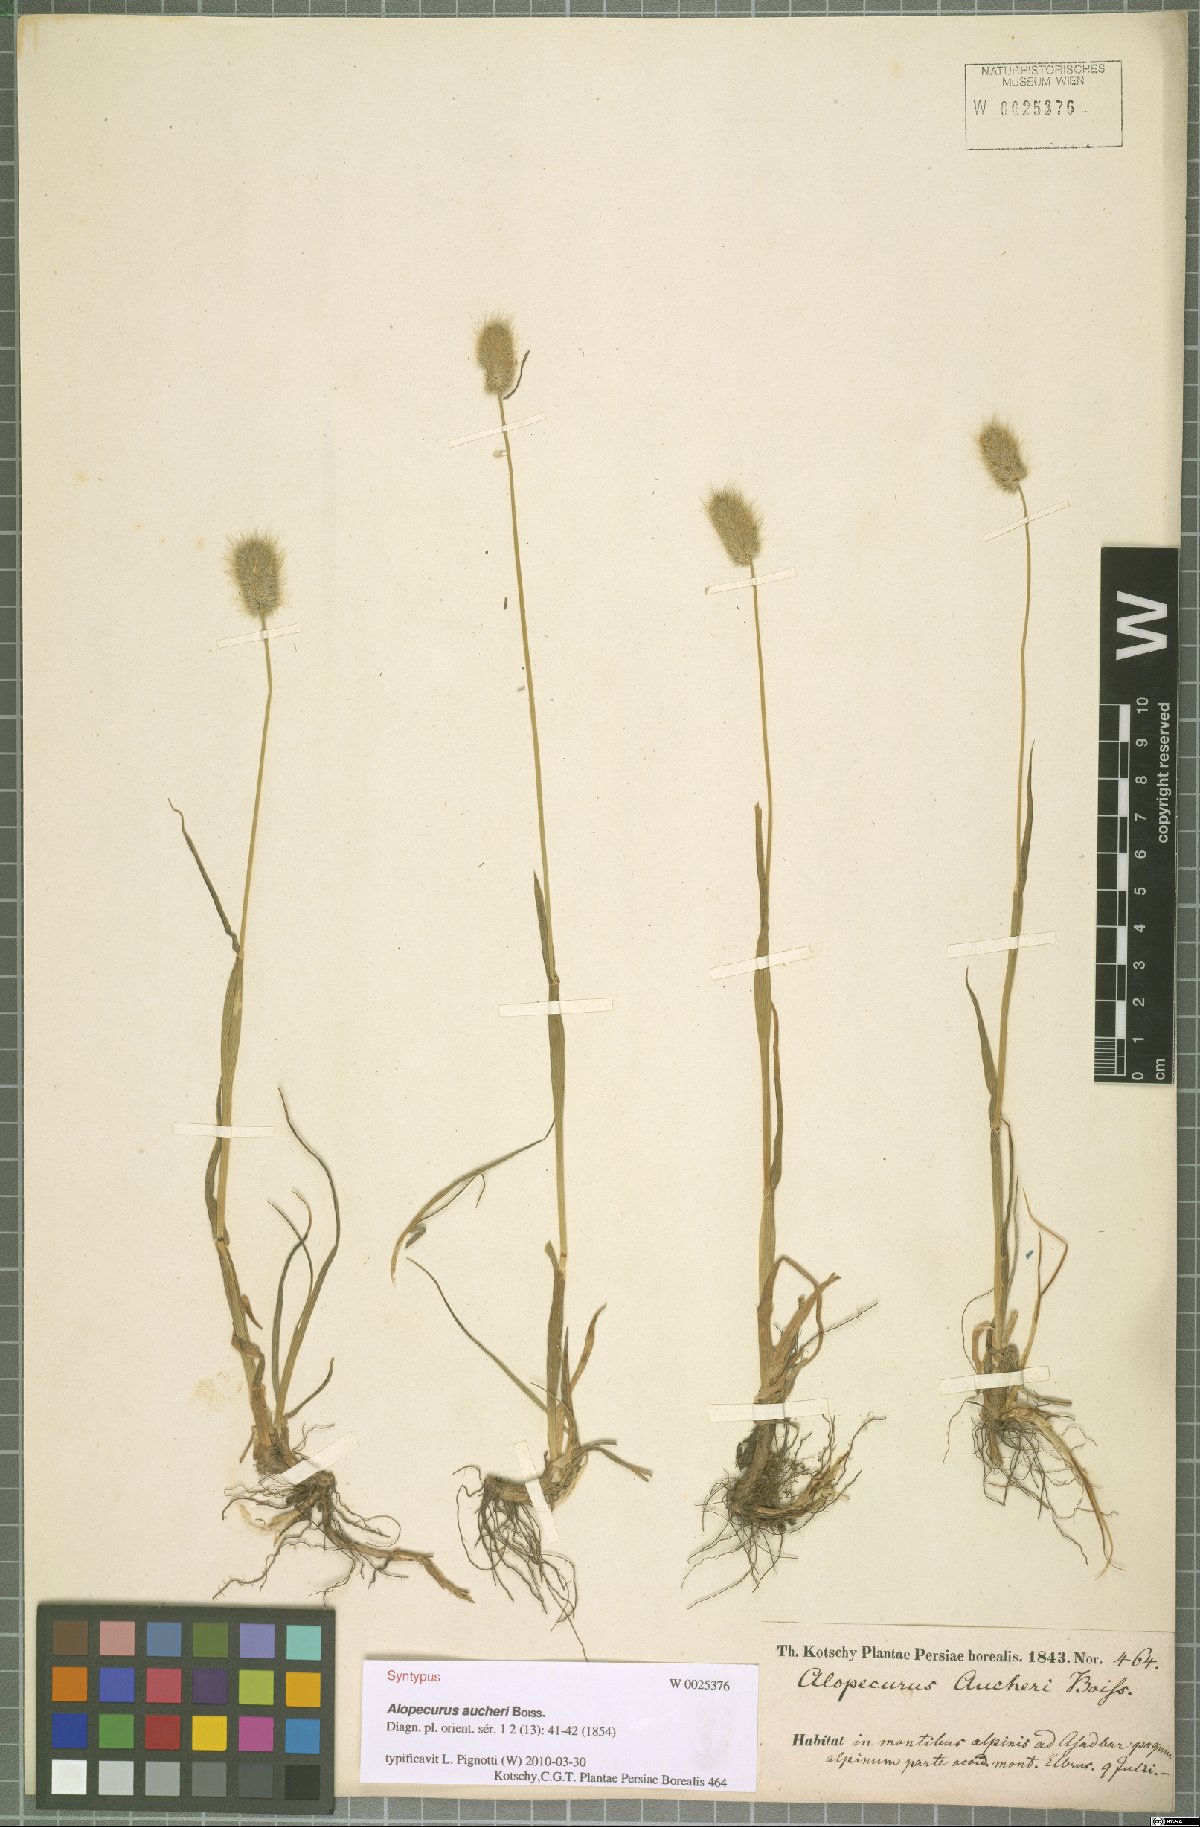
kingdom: Plantae
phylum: Tracheophyta
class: Liliopsida
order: Poales
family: Poaceae
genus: Alopecurus
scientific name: Alopecurus aucheri
